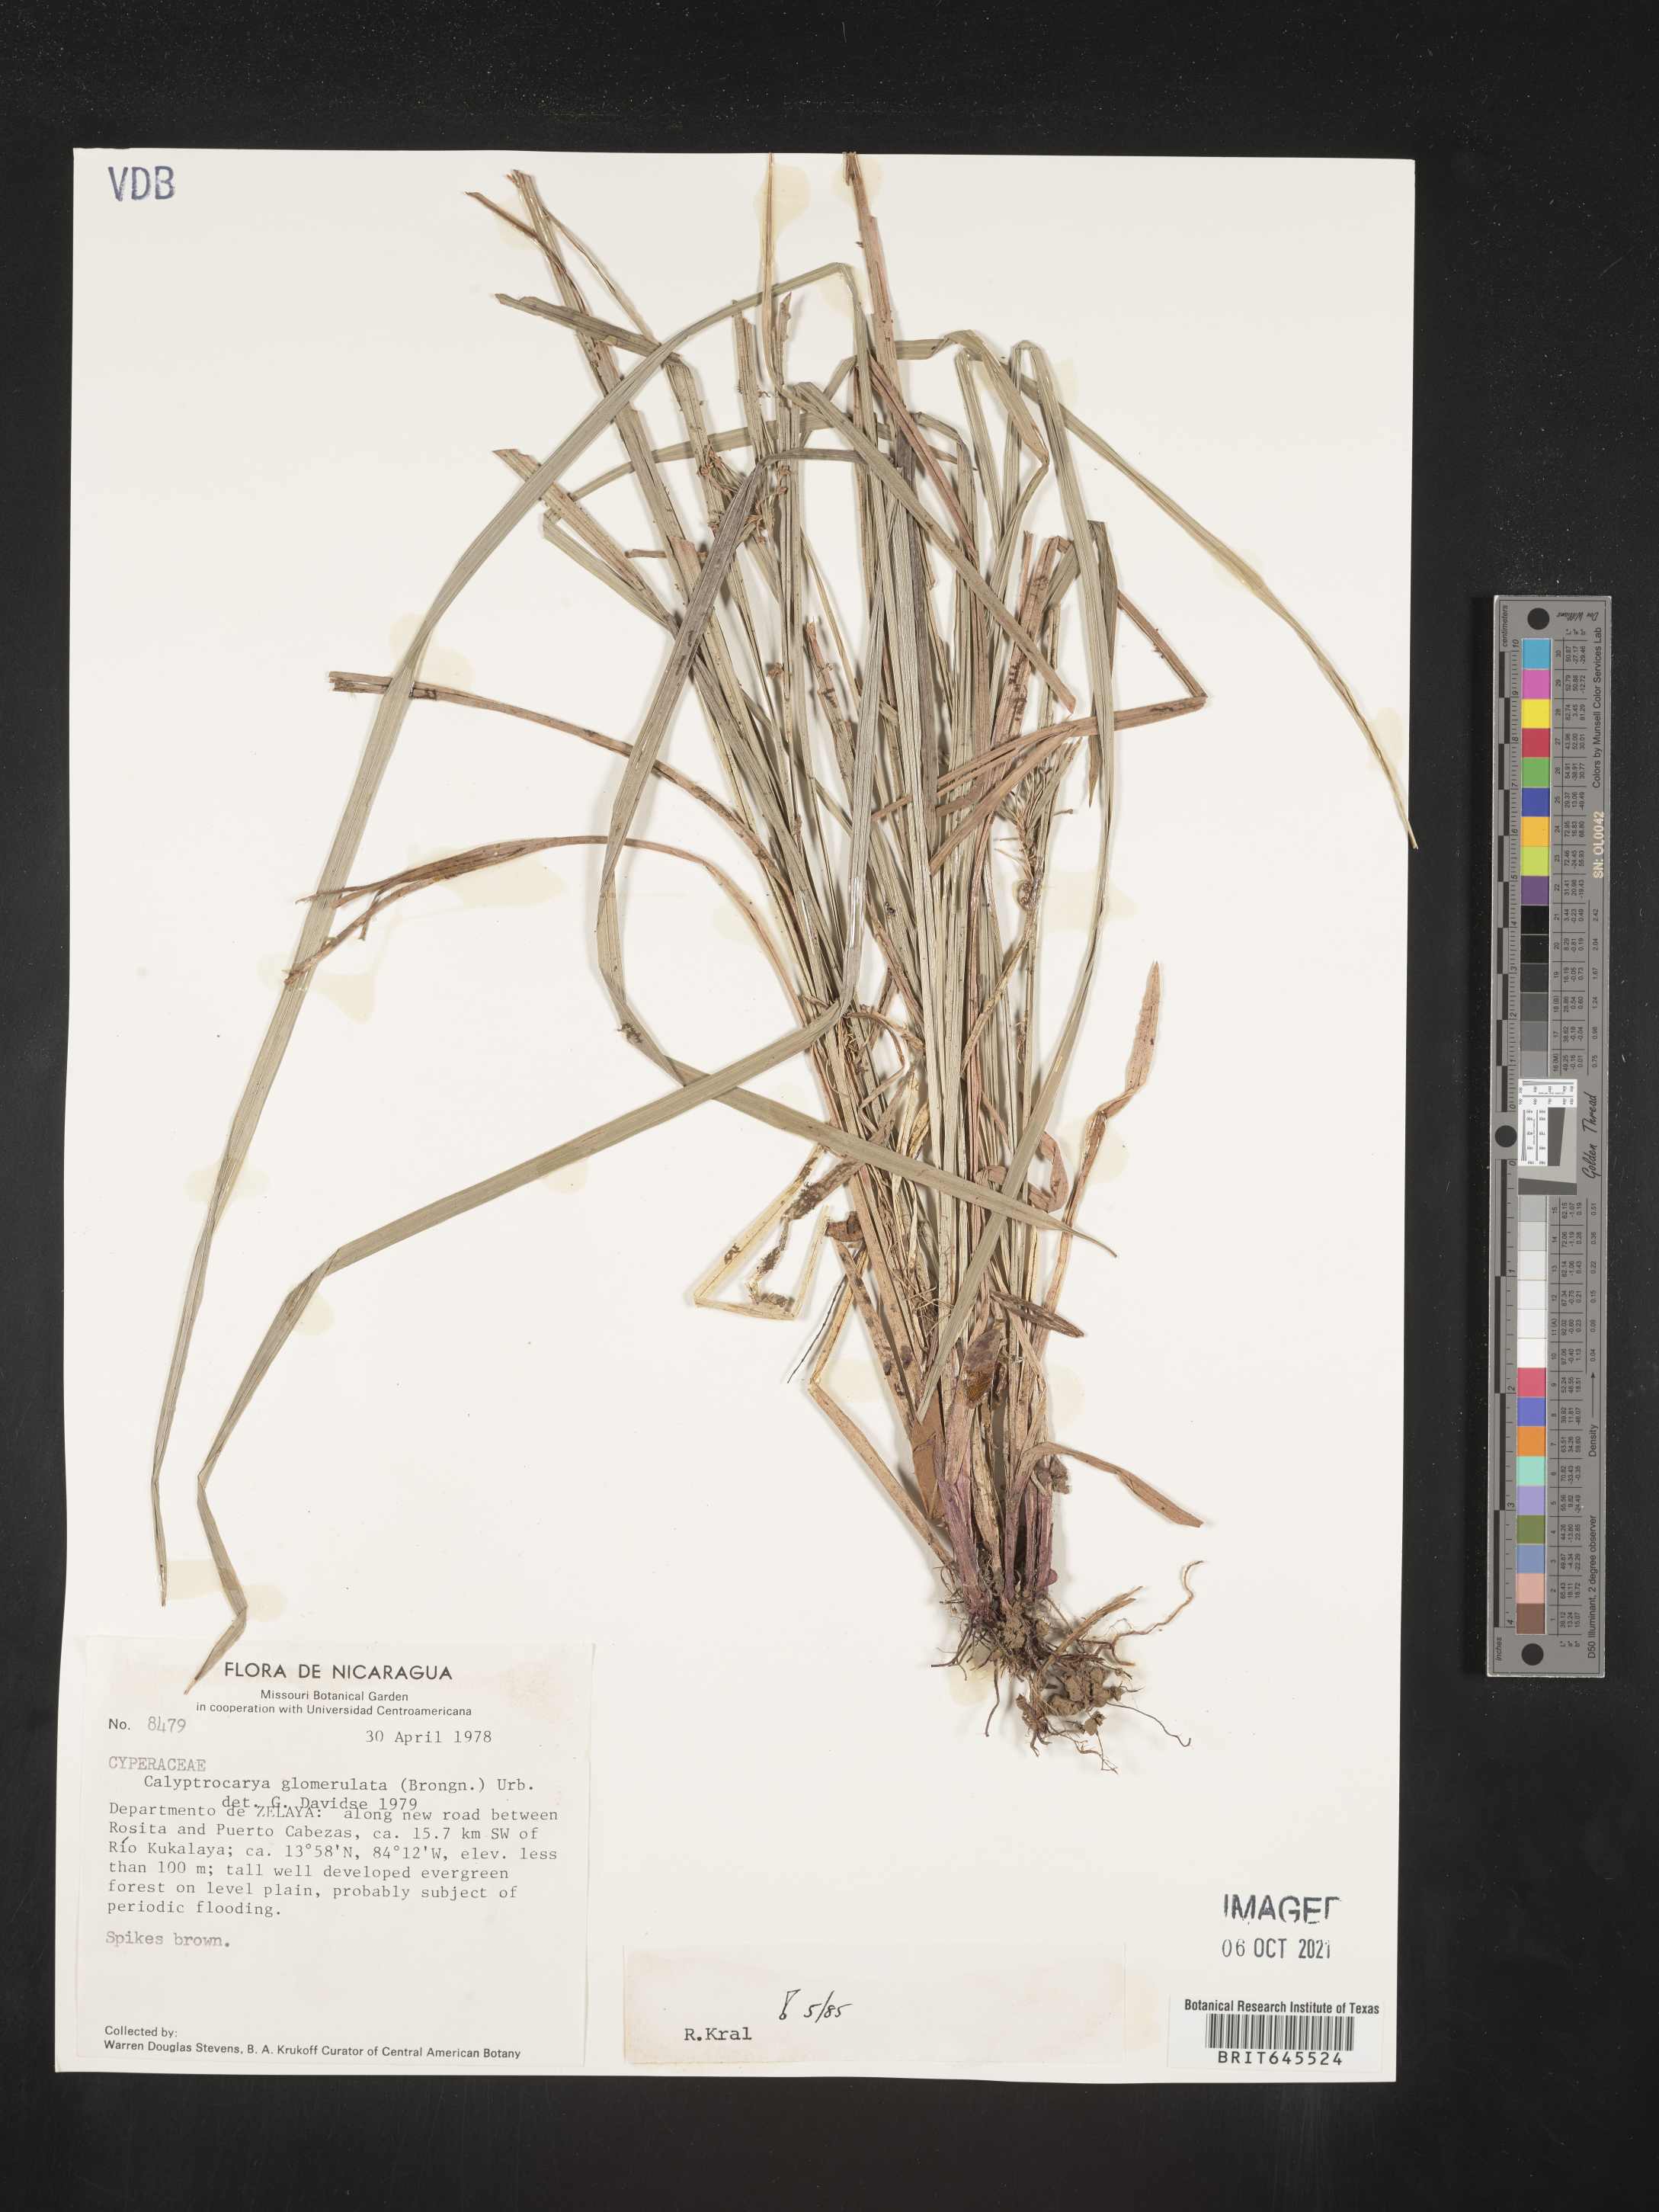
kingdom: Plantae
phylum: Tracheophyta
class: Liliopsida
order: Poales
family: Cyperaceae
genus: Calyptrocarya
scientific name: Calyptrocarya glomerulata
